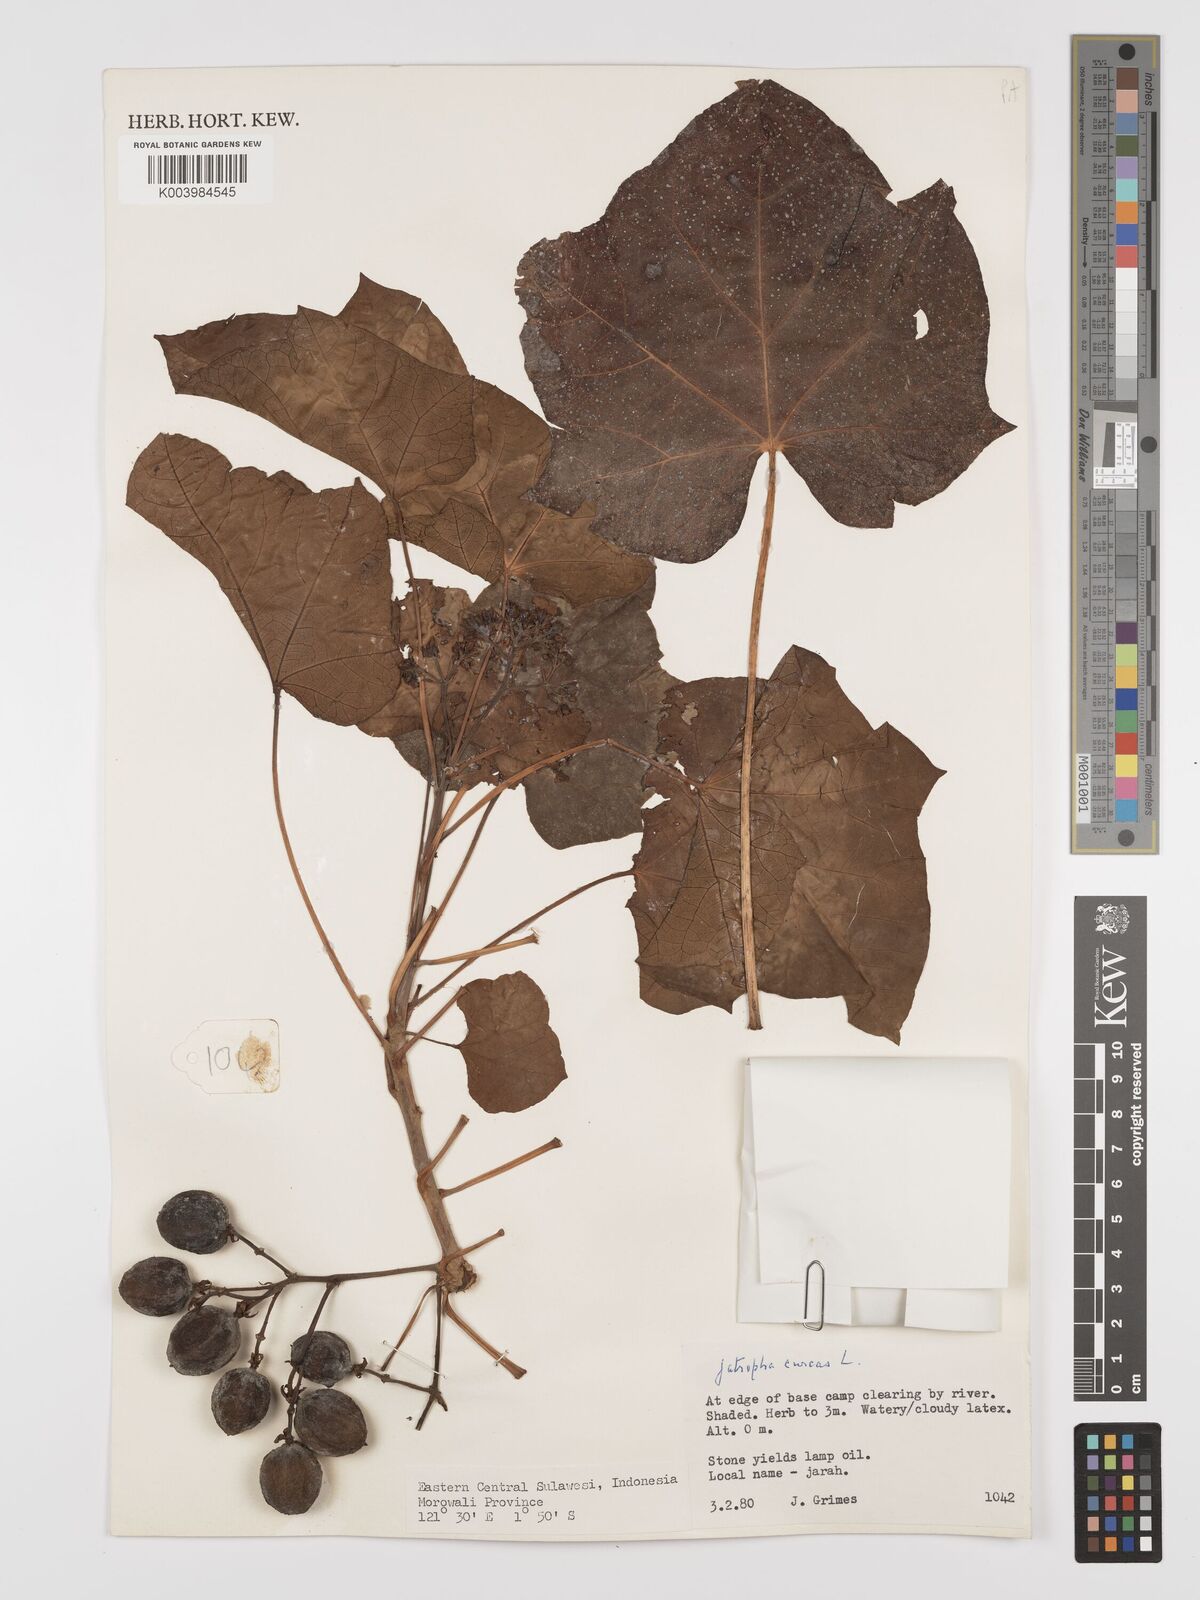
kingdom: Plantae
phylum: Tracheophyta
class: Magnoliopsida
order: Malpighiales
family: Euphorbiaceae
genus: Jatropha
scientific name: Jatropha curcas
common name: Barbados nut
